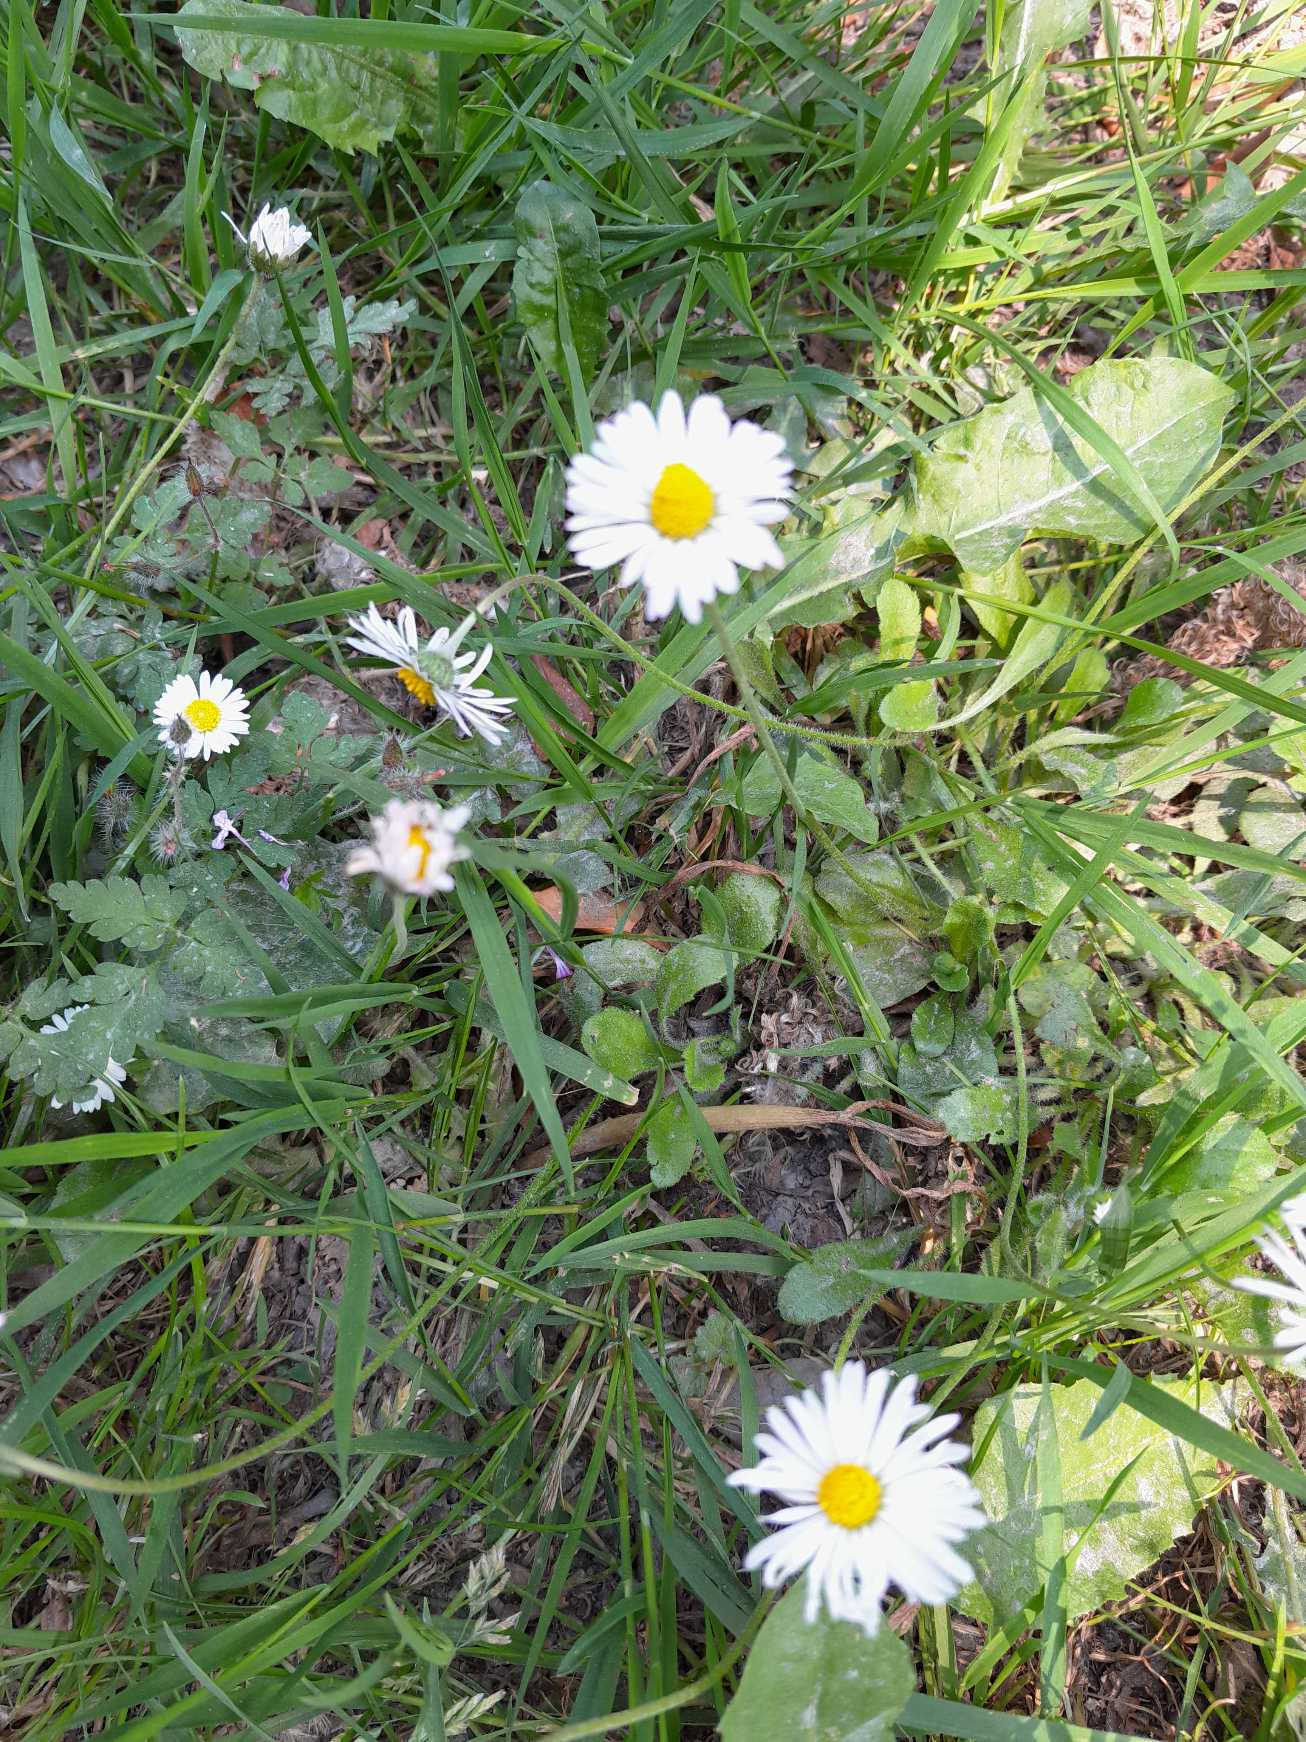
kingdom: Plantae
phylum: Tracheophyta
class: Magnoliopsida
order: Asterales
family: Asteraceae
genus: Bellis
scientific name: Bellis perennis
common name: Tusindfryd
